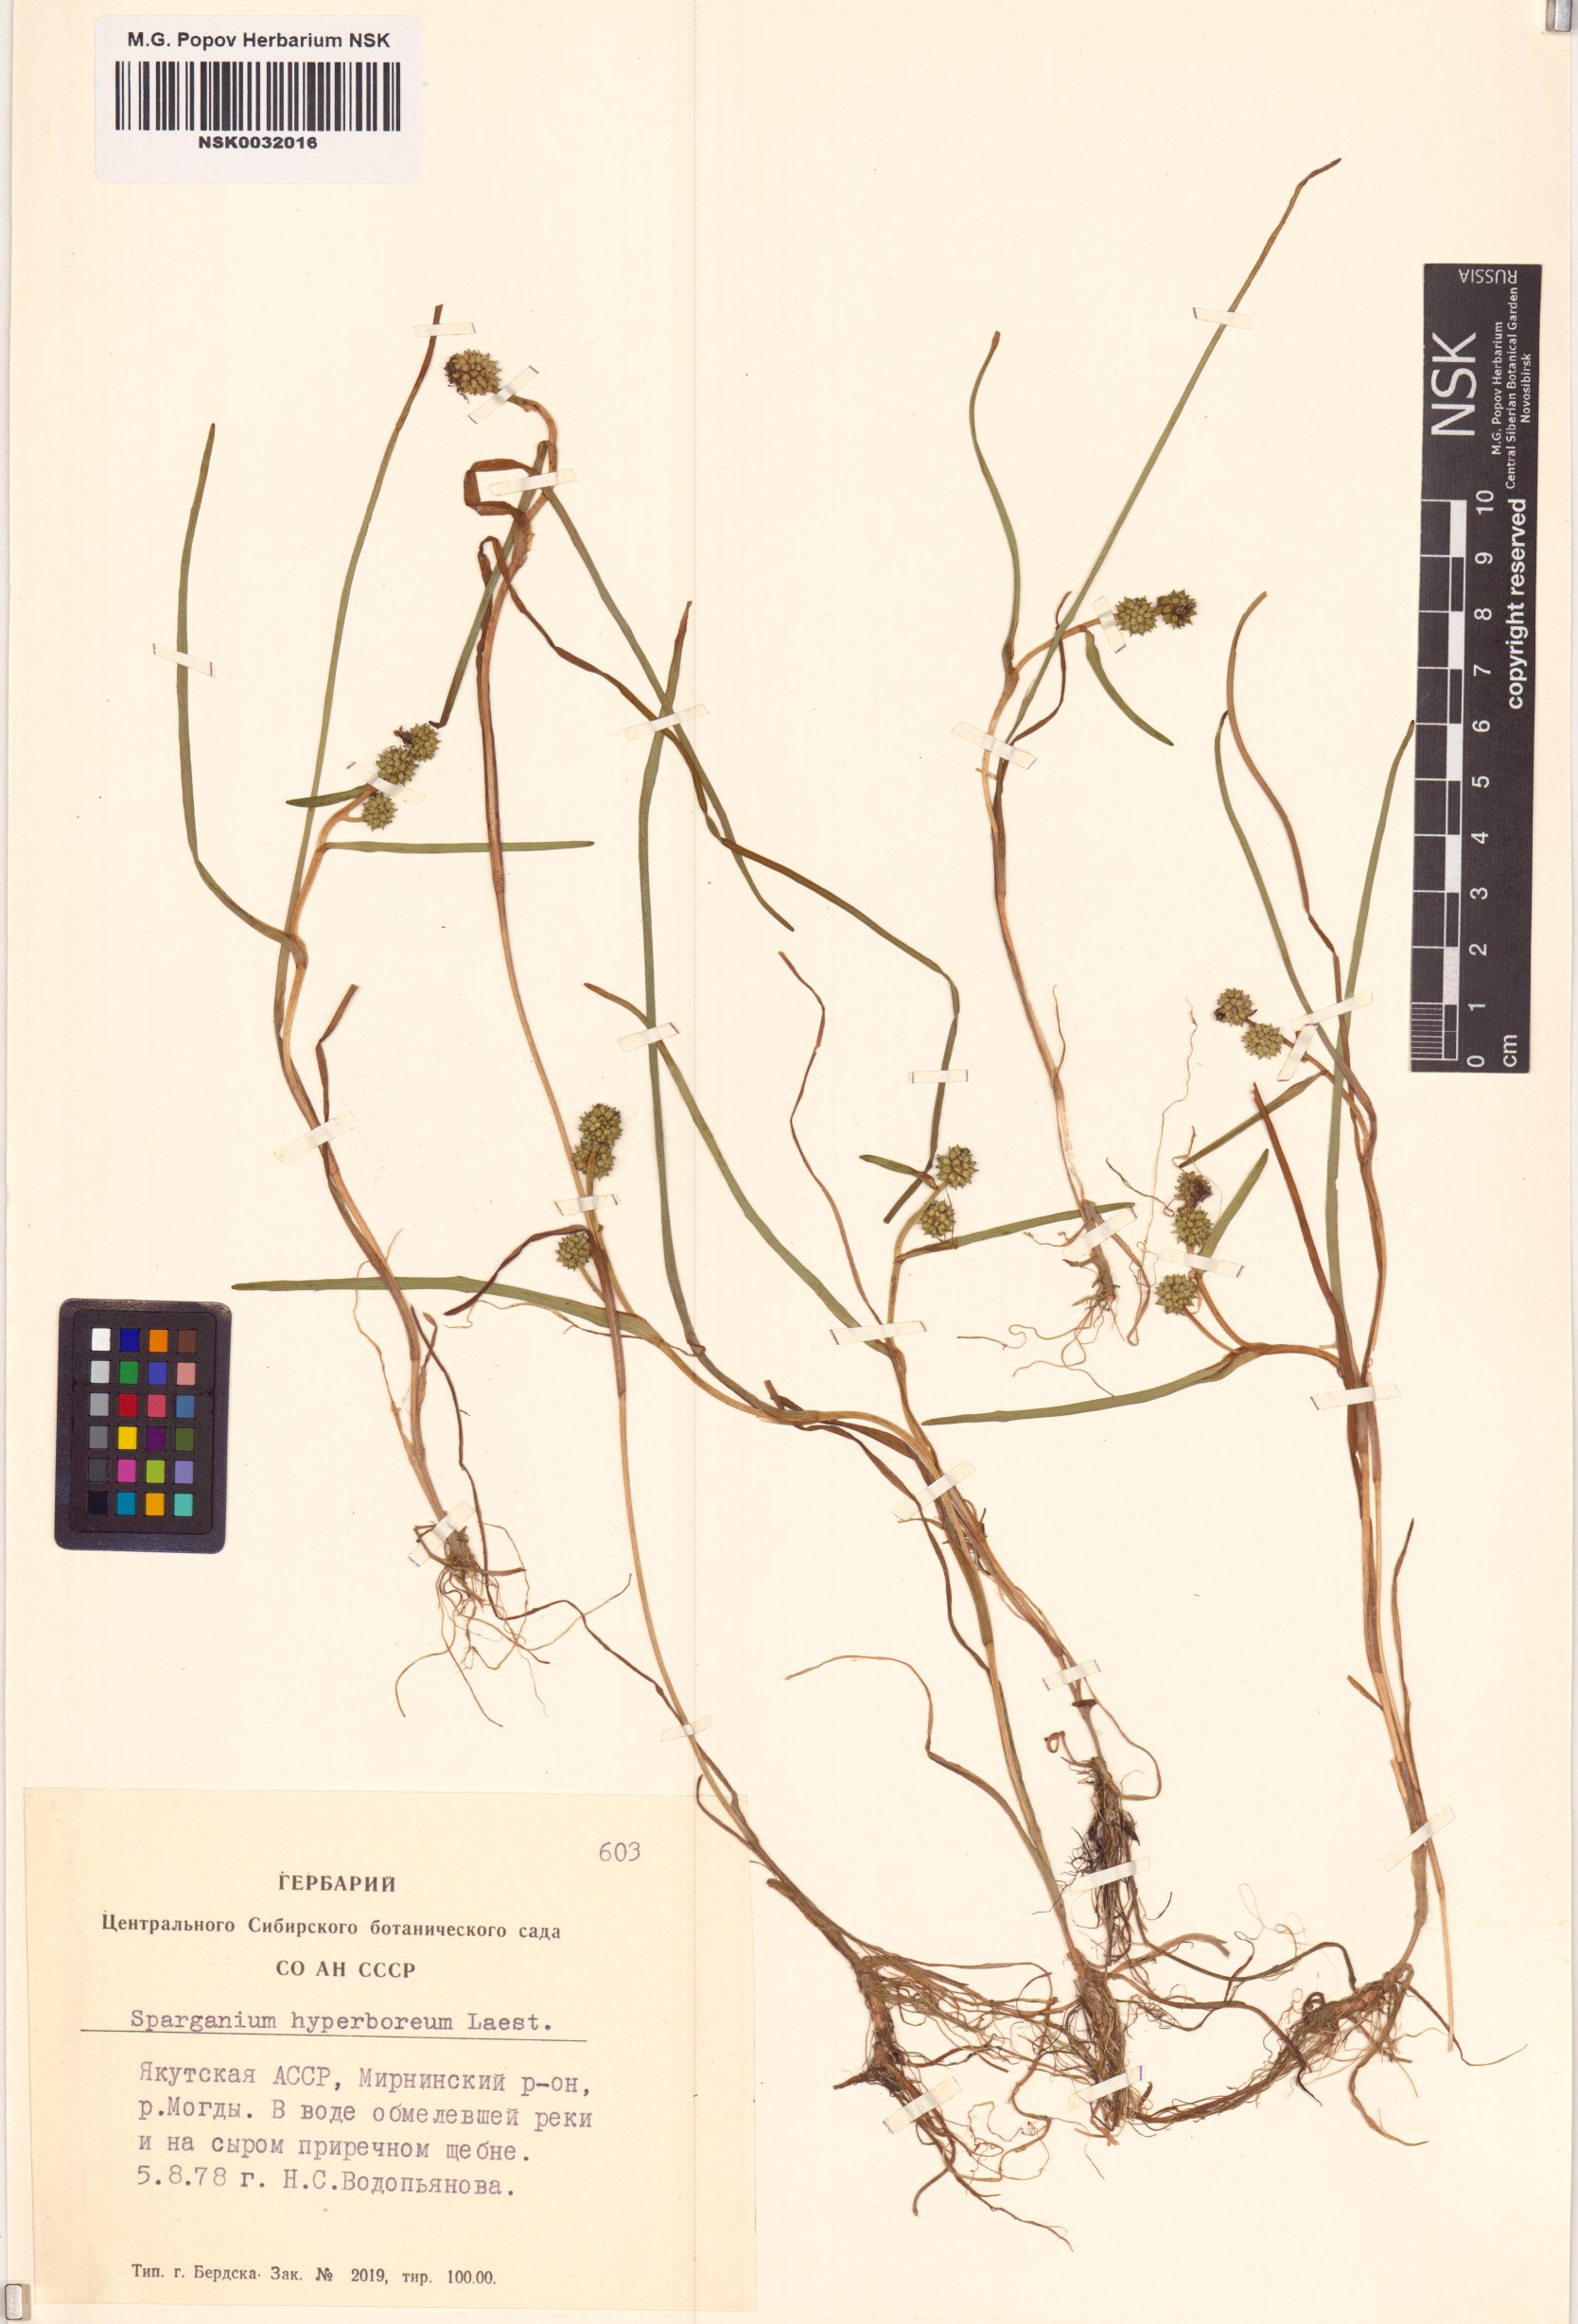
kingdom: Plantae
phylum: Tracheophyta
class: Liliopsida
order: Poales
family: Typhaceae
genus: Sparganium
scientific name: Sparganium hyperboreum
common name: Arctic burreed
